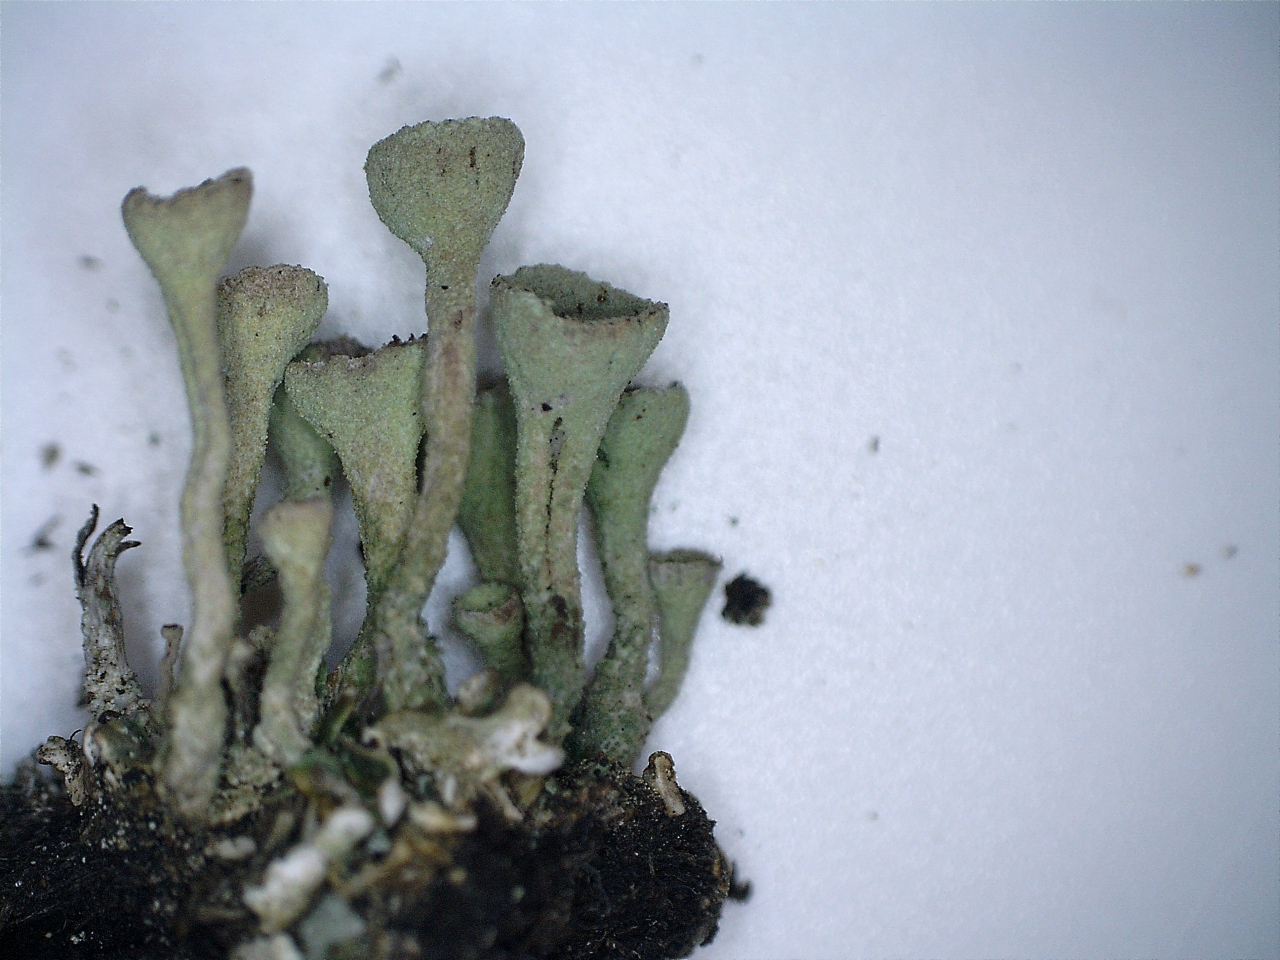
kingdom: Fungi
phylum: Ascomycota
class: Lecanoromycetes
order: Lecanorales
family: Cladoniaceae
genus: Cladonia
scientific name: Cladonia
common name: brungrøn bægerlav
